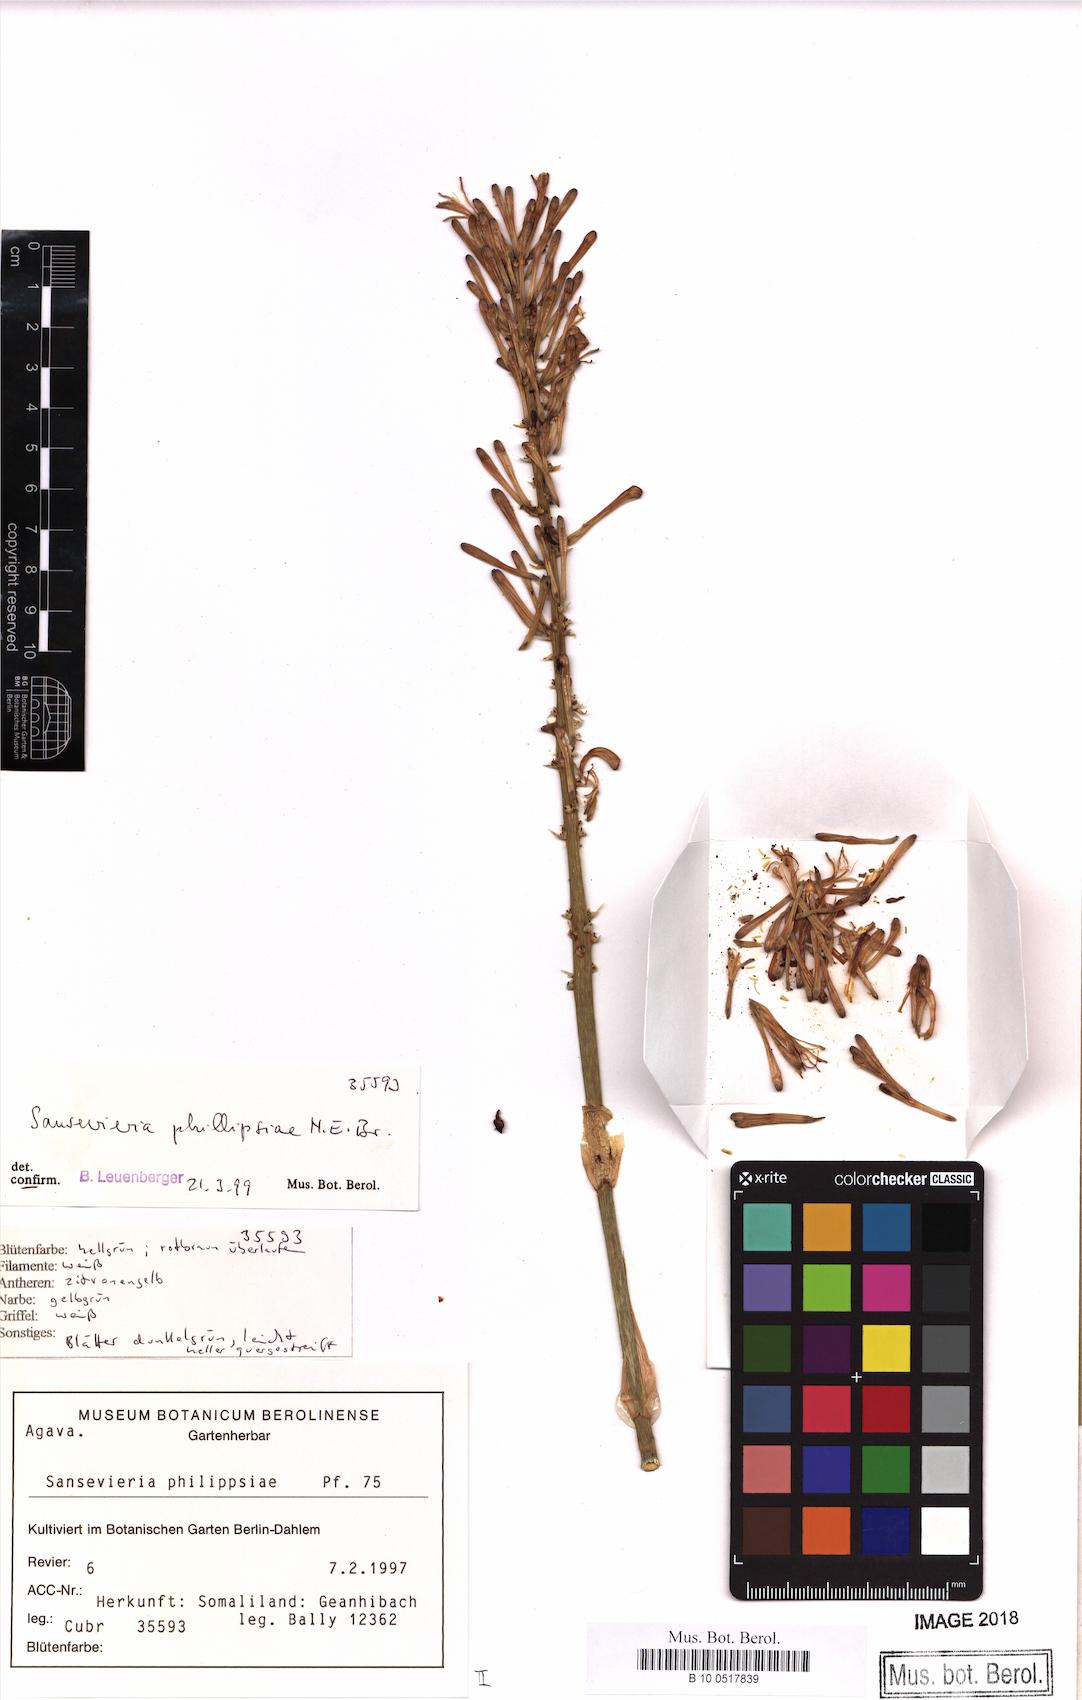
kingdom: Plantae
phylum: Tracheophyta
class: Liliopsida
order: Asparagales
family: Asparagaceae
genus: Dracaena
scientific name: Dracaena phillipsiae
